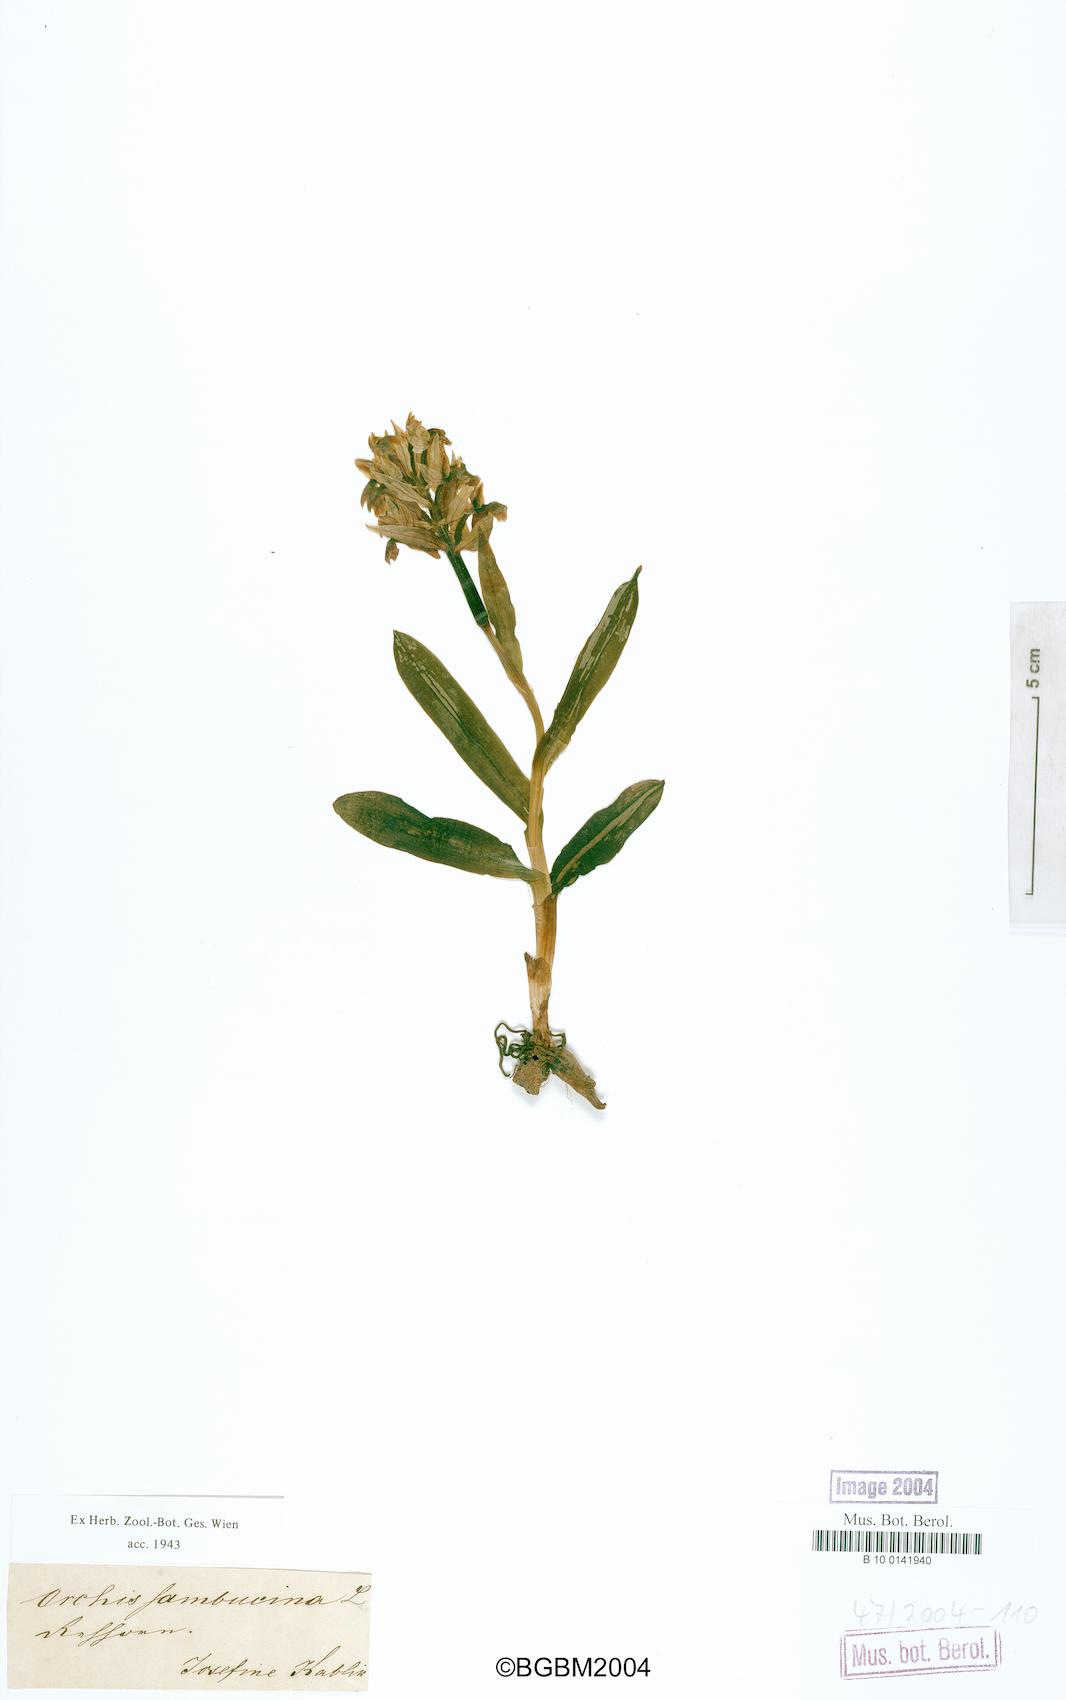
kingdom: Plantae
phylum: Tracheophyta
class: Liliopsida
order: Asparagales
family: Orchidaceae
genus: Dactylorhiza
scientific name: Dactylorhiza sambucina
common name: Elder-flowered orchid
